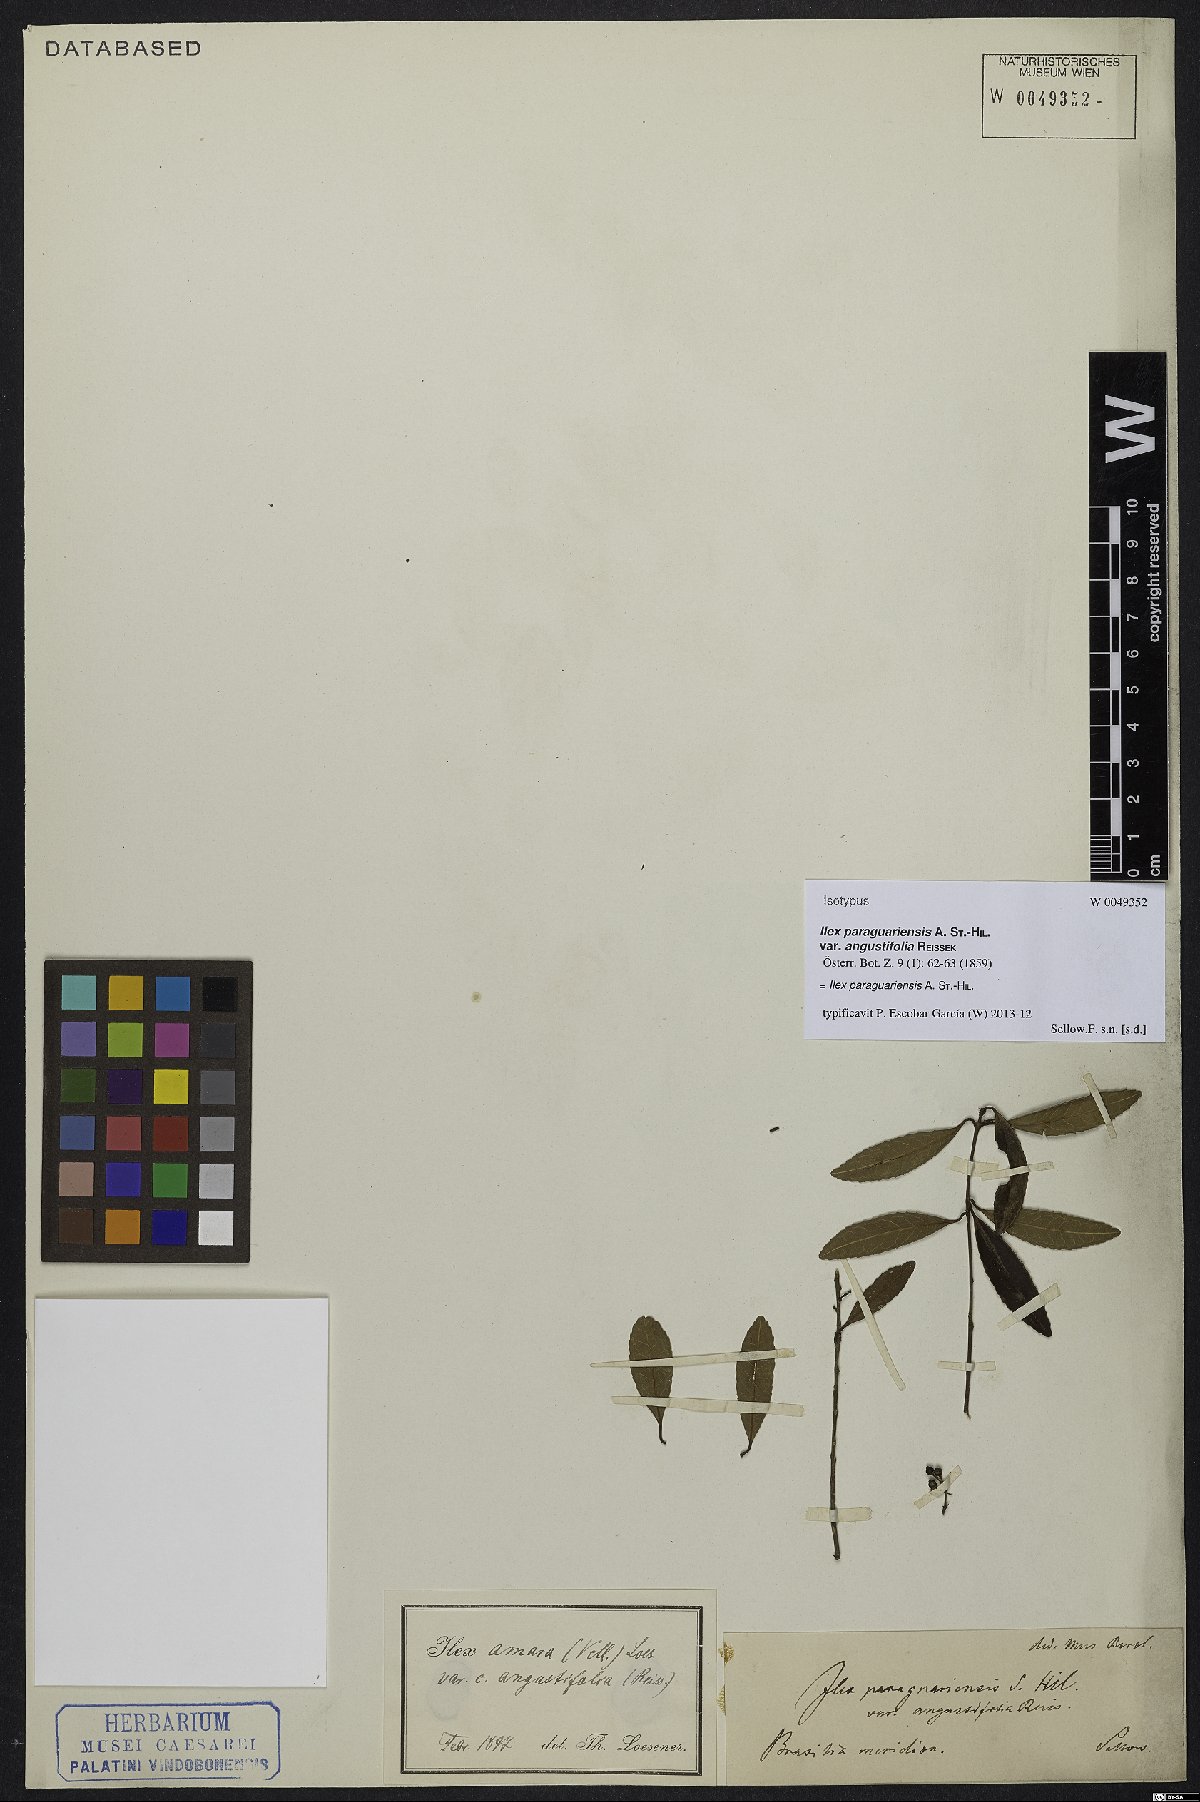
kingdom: Plantae
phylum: Tracheophyta
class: Magnoliopsida
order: Aquifoliales
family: Aquifoliaceae
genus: Ilex
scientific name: Ilex paraguariensis
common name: Paraguay tea
